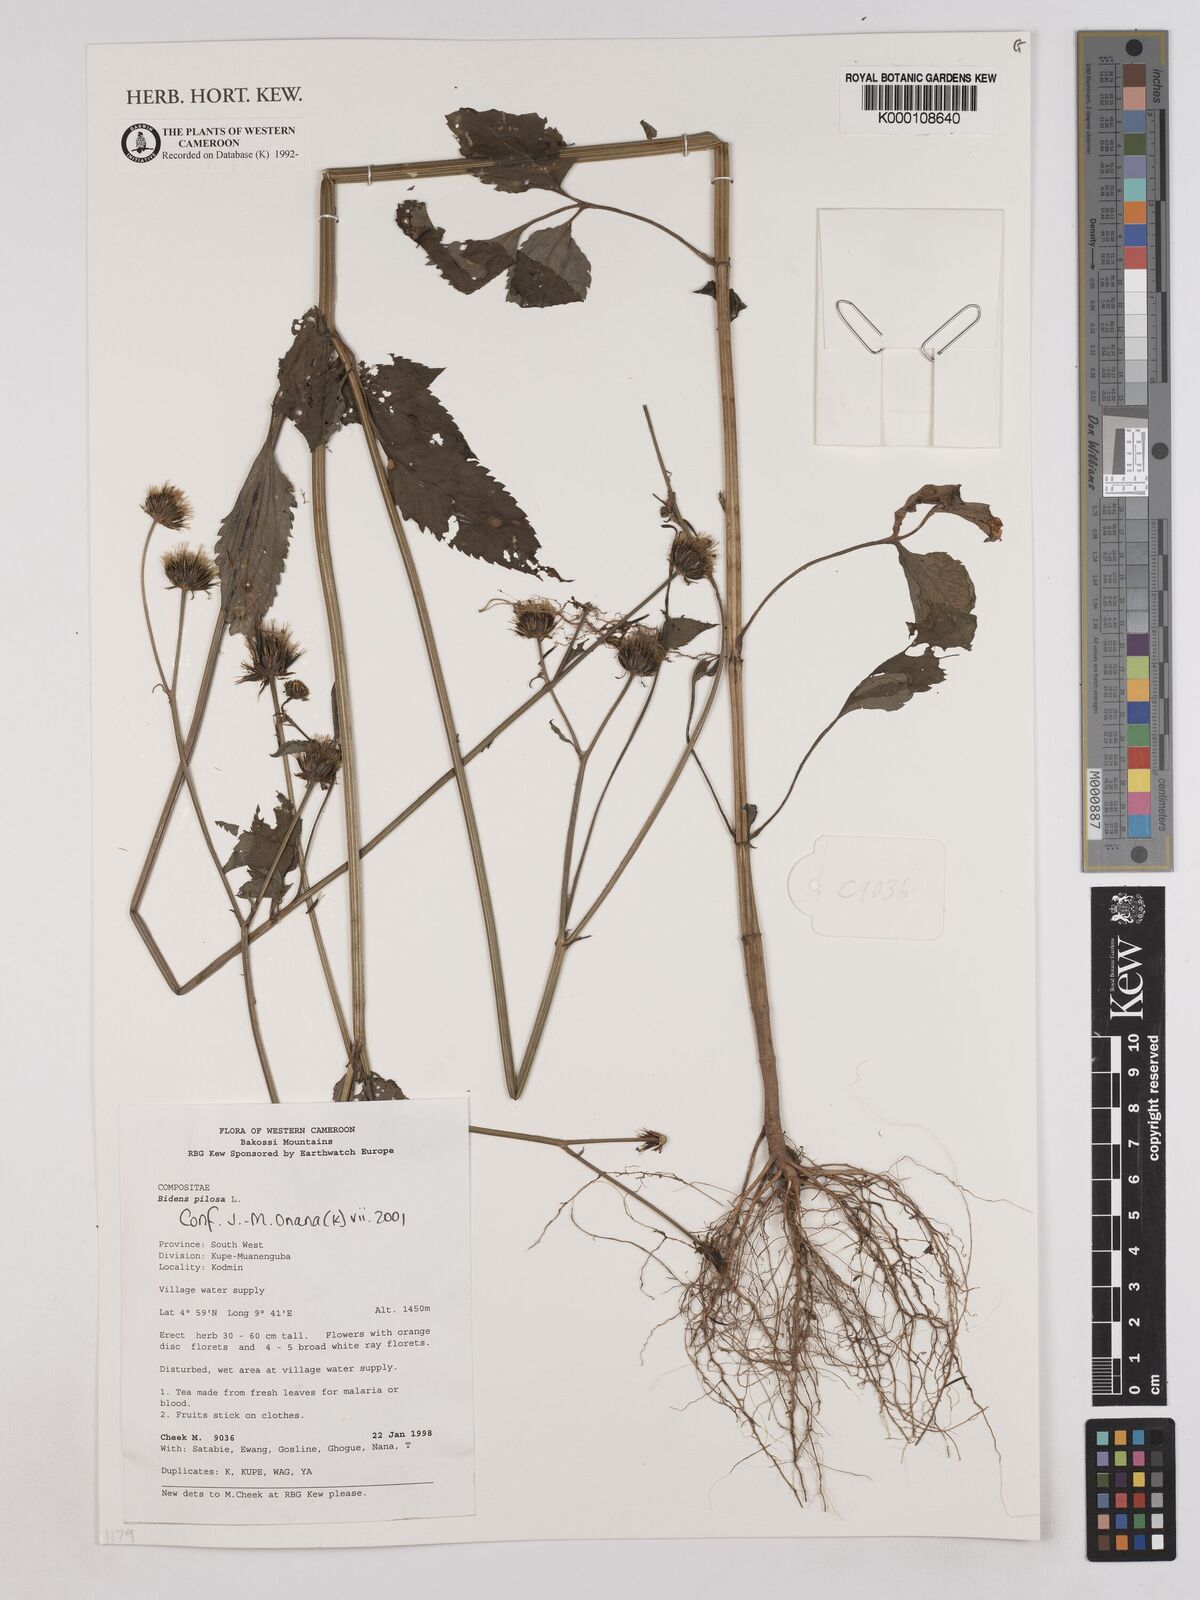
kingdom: Plantae
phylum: Tracheophyta
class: Magnoliopsida
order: Asterales
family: Asteraceae
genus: Bidens
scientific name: Bidens pilosa
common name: Black-jack
